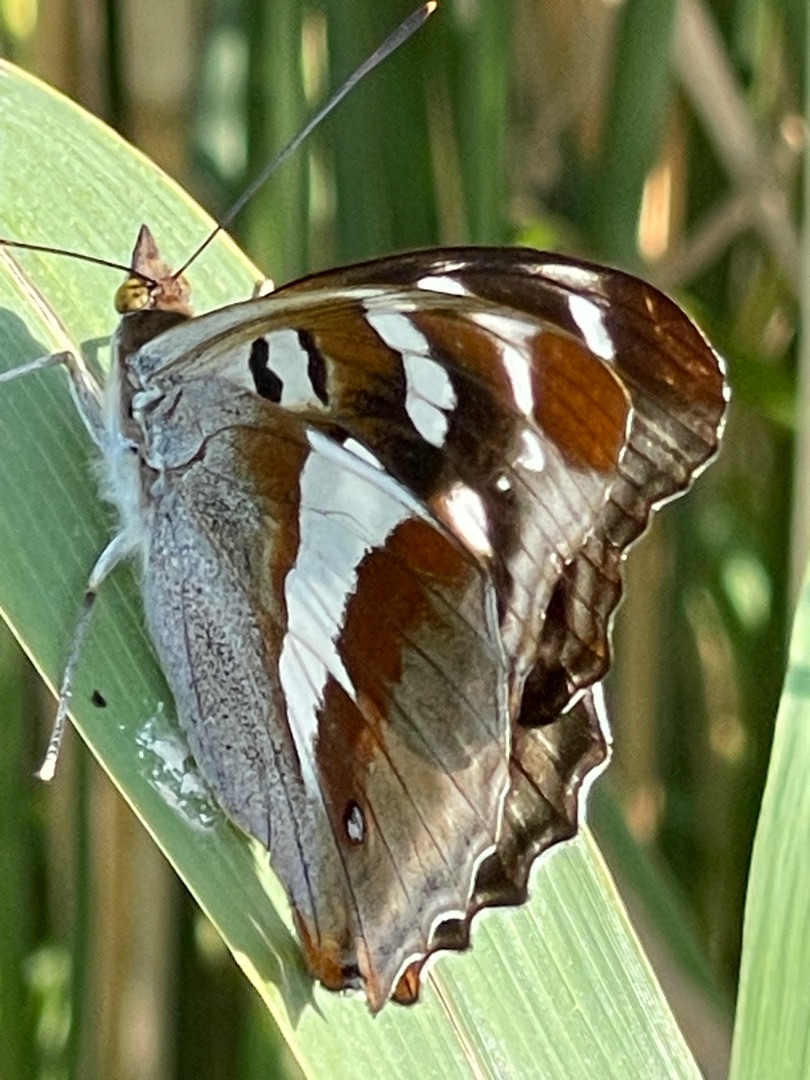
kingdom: Animalia
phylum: Arthropoda
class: Insecta
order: Lepidoptera
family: Nymphalidae
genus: Apatura
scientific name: Apatura iris
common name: Iris
